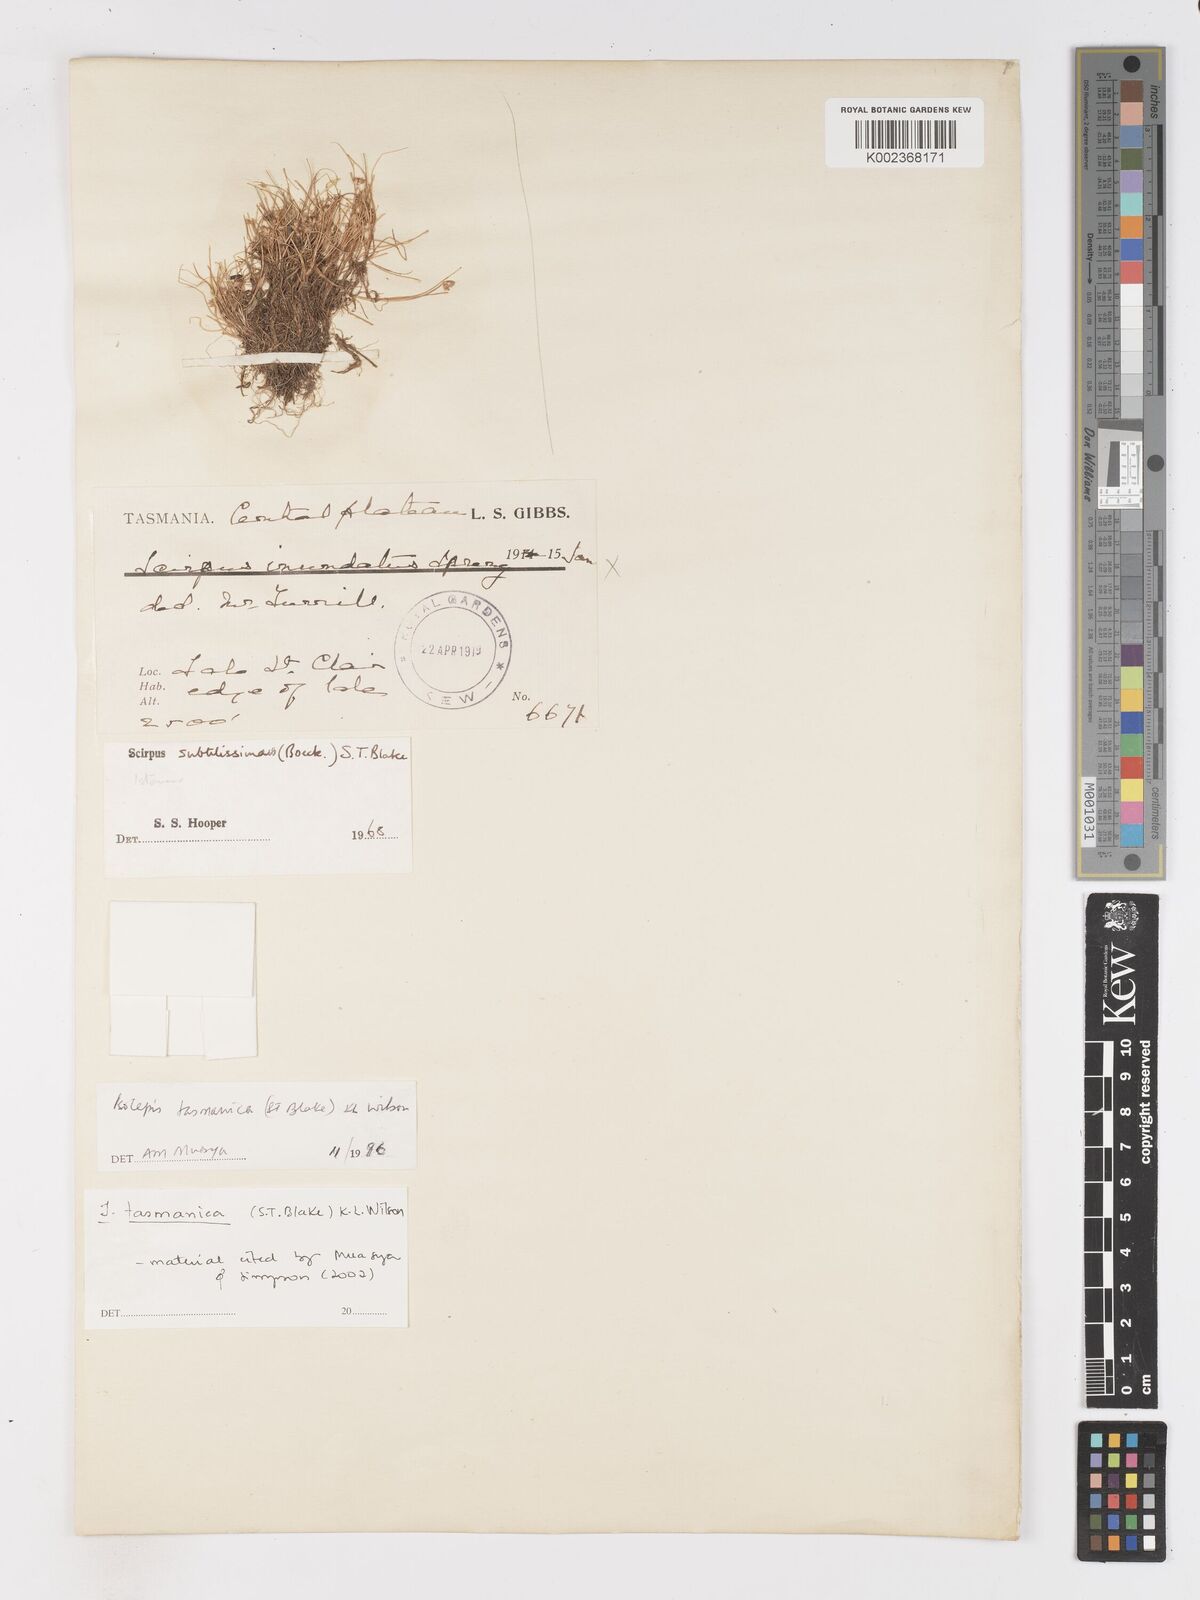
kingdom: Plantae
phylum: Tracheophyta
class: Liliopsida
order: Poales
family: Cyperaceae
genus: Isolepis
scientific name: Isolepis tasmanica
